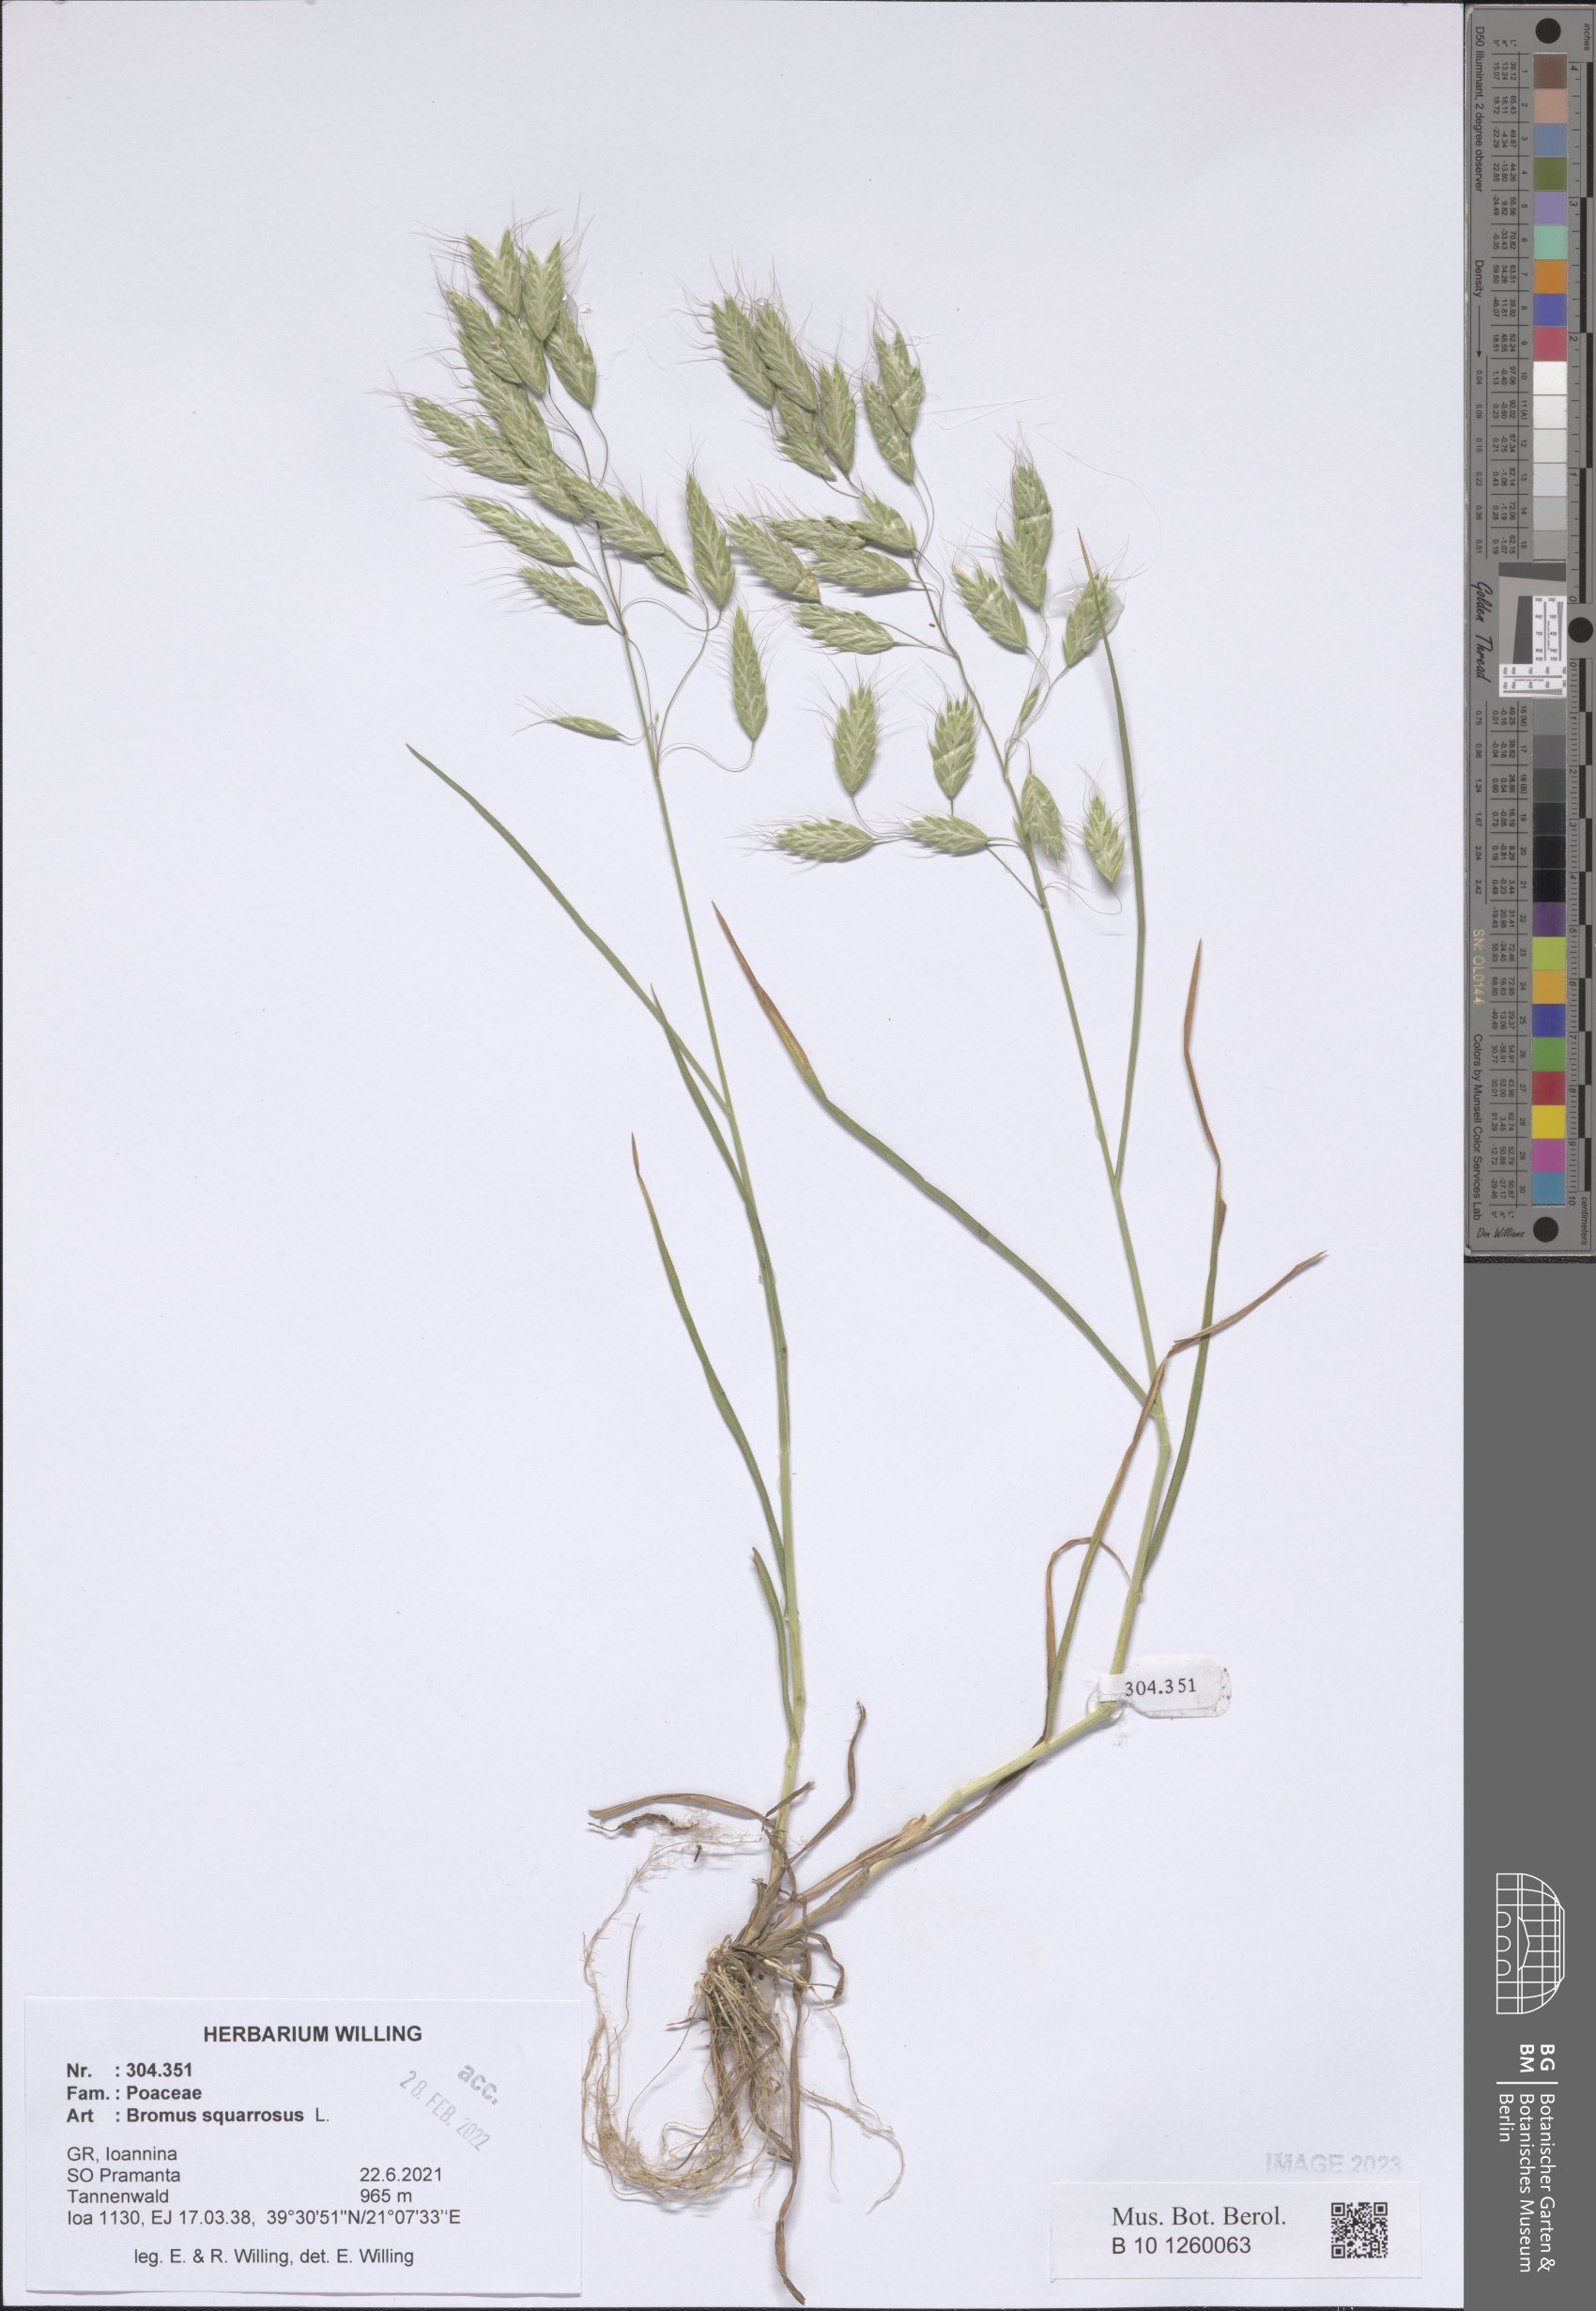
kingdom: Plantae
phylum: Tracheophyta
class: Liliopsida
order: Poales
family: Poaceae
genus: Bromus
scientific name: Bromus squarrosus
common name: Corn brome
